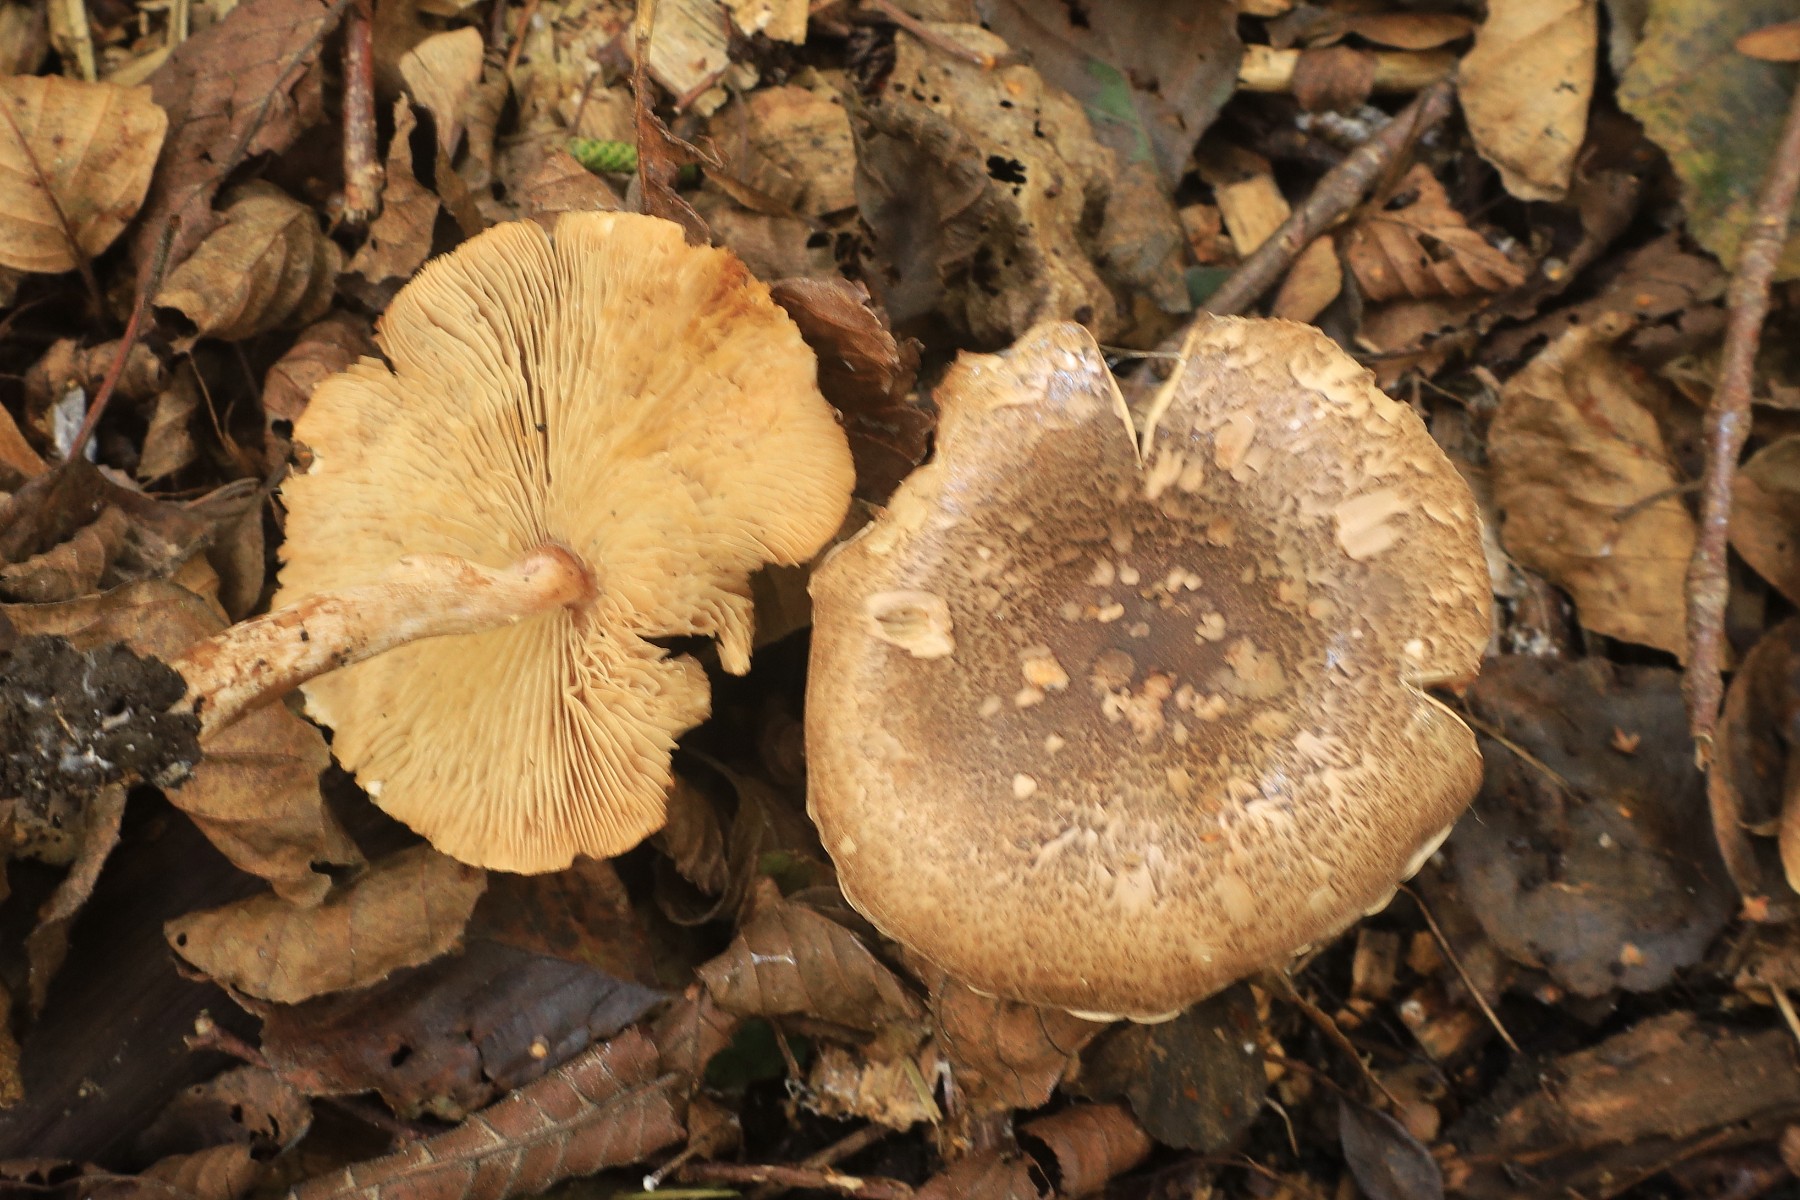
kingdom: Fungi
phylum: Basidiomycota
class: Agaricomycetes
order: Agaricales
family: Agaricaceae
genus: Leucocoprinus
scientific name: Leucocoprinus straminellus
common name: rustbrun parasolhat
